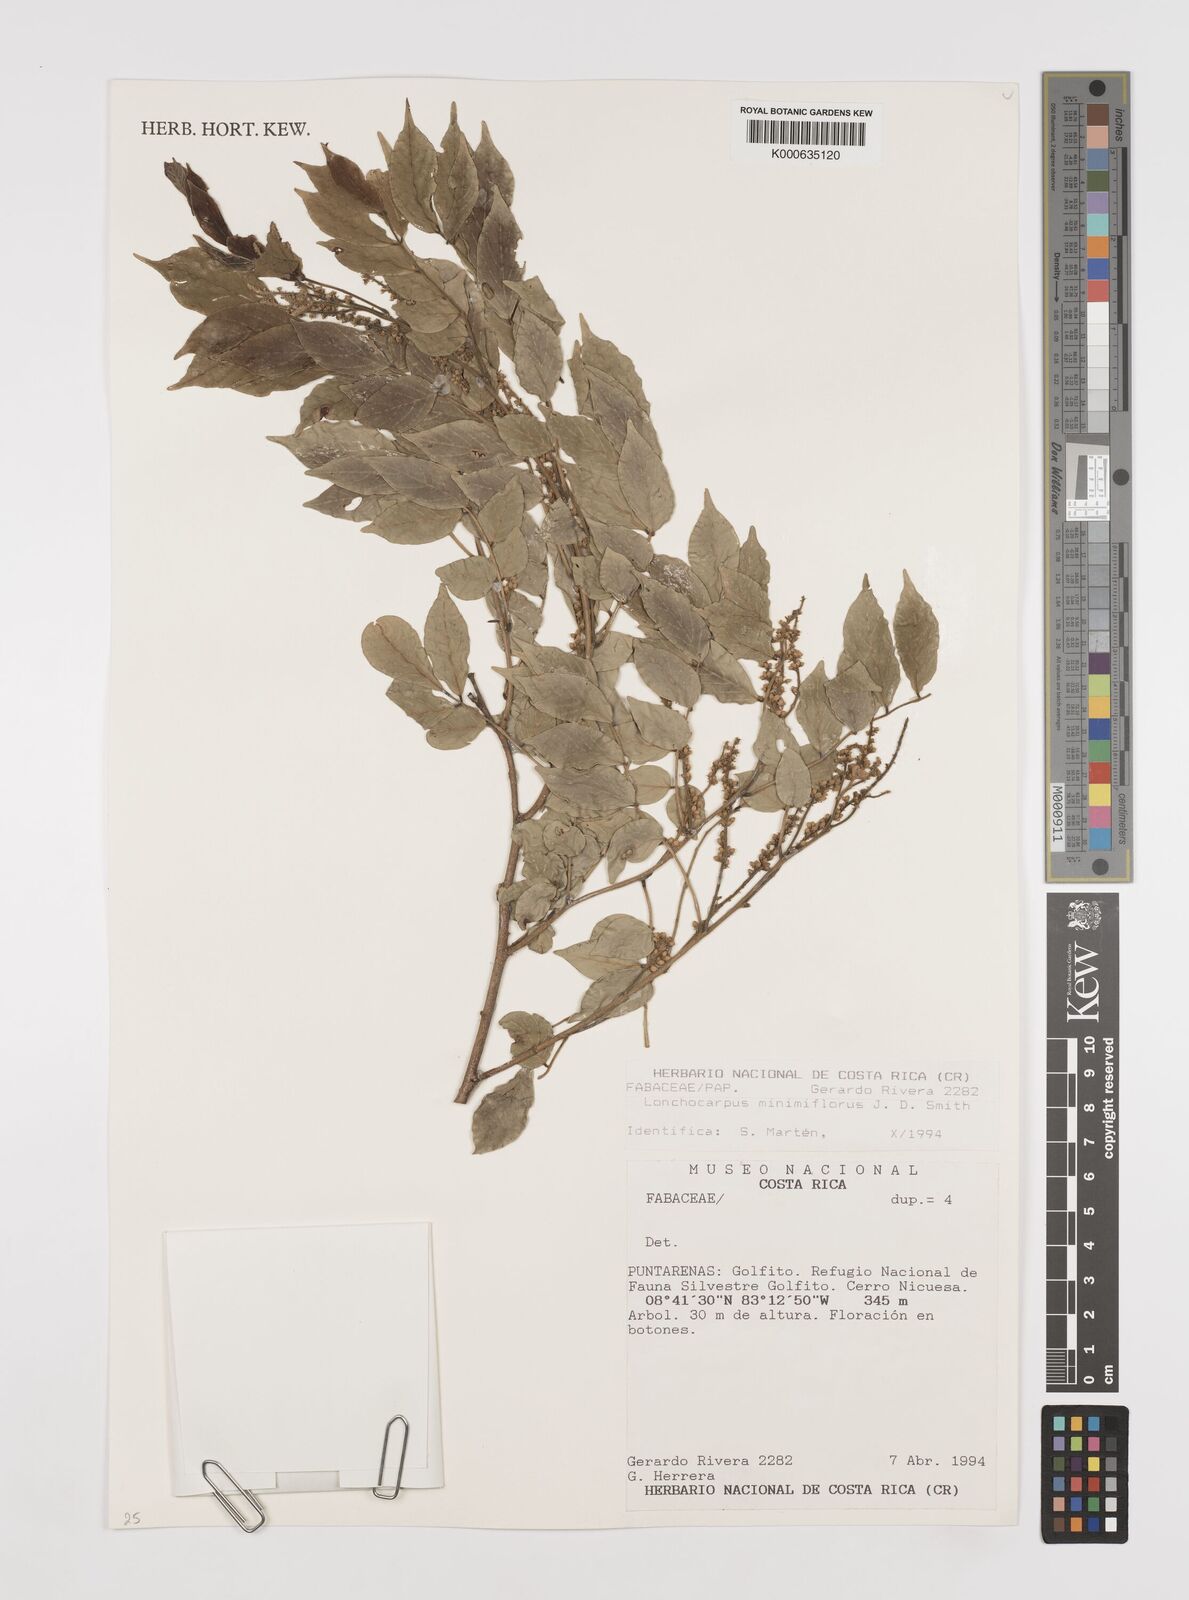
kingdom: Plantae
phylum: Tracheophyta
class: Magnoliopsida
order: Fabales
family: Fabaceae
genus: Lonchocarpus
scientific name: Lonchocarpus
